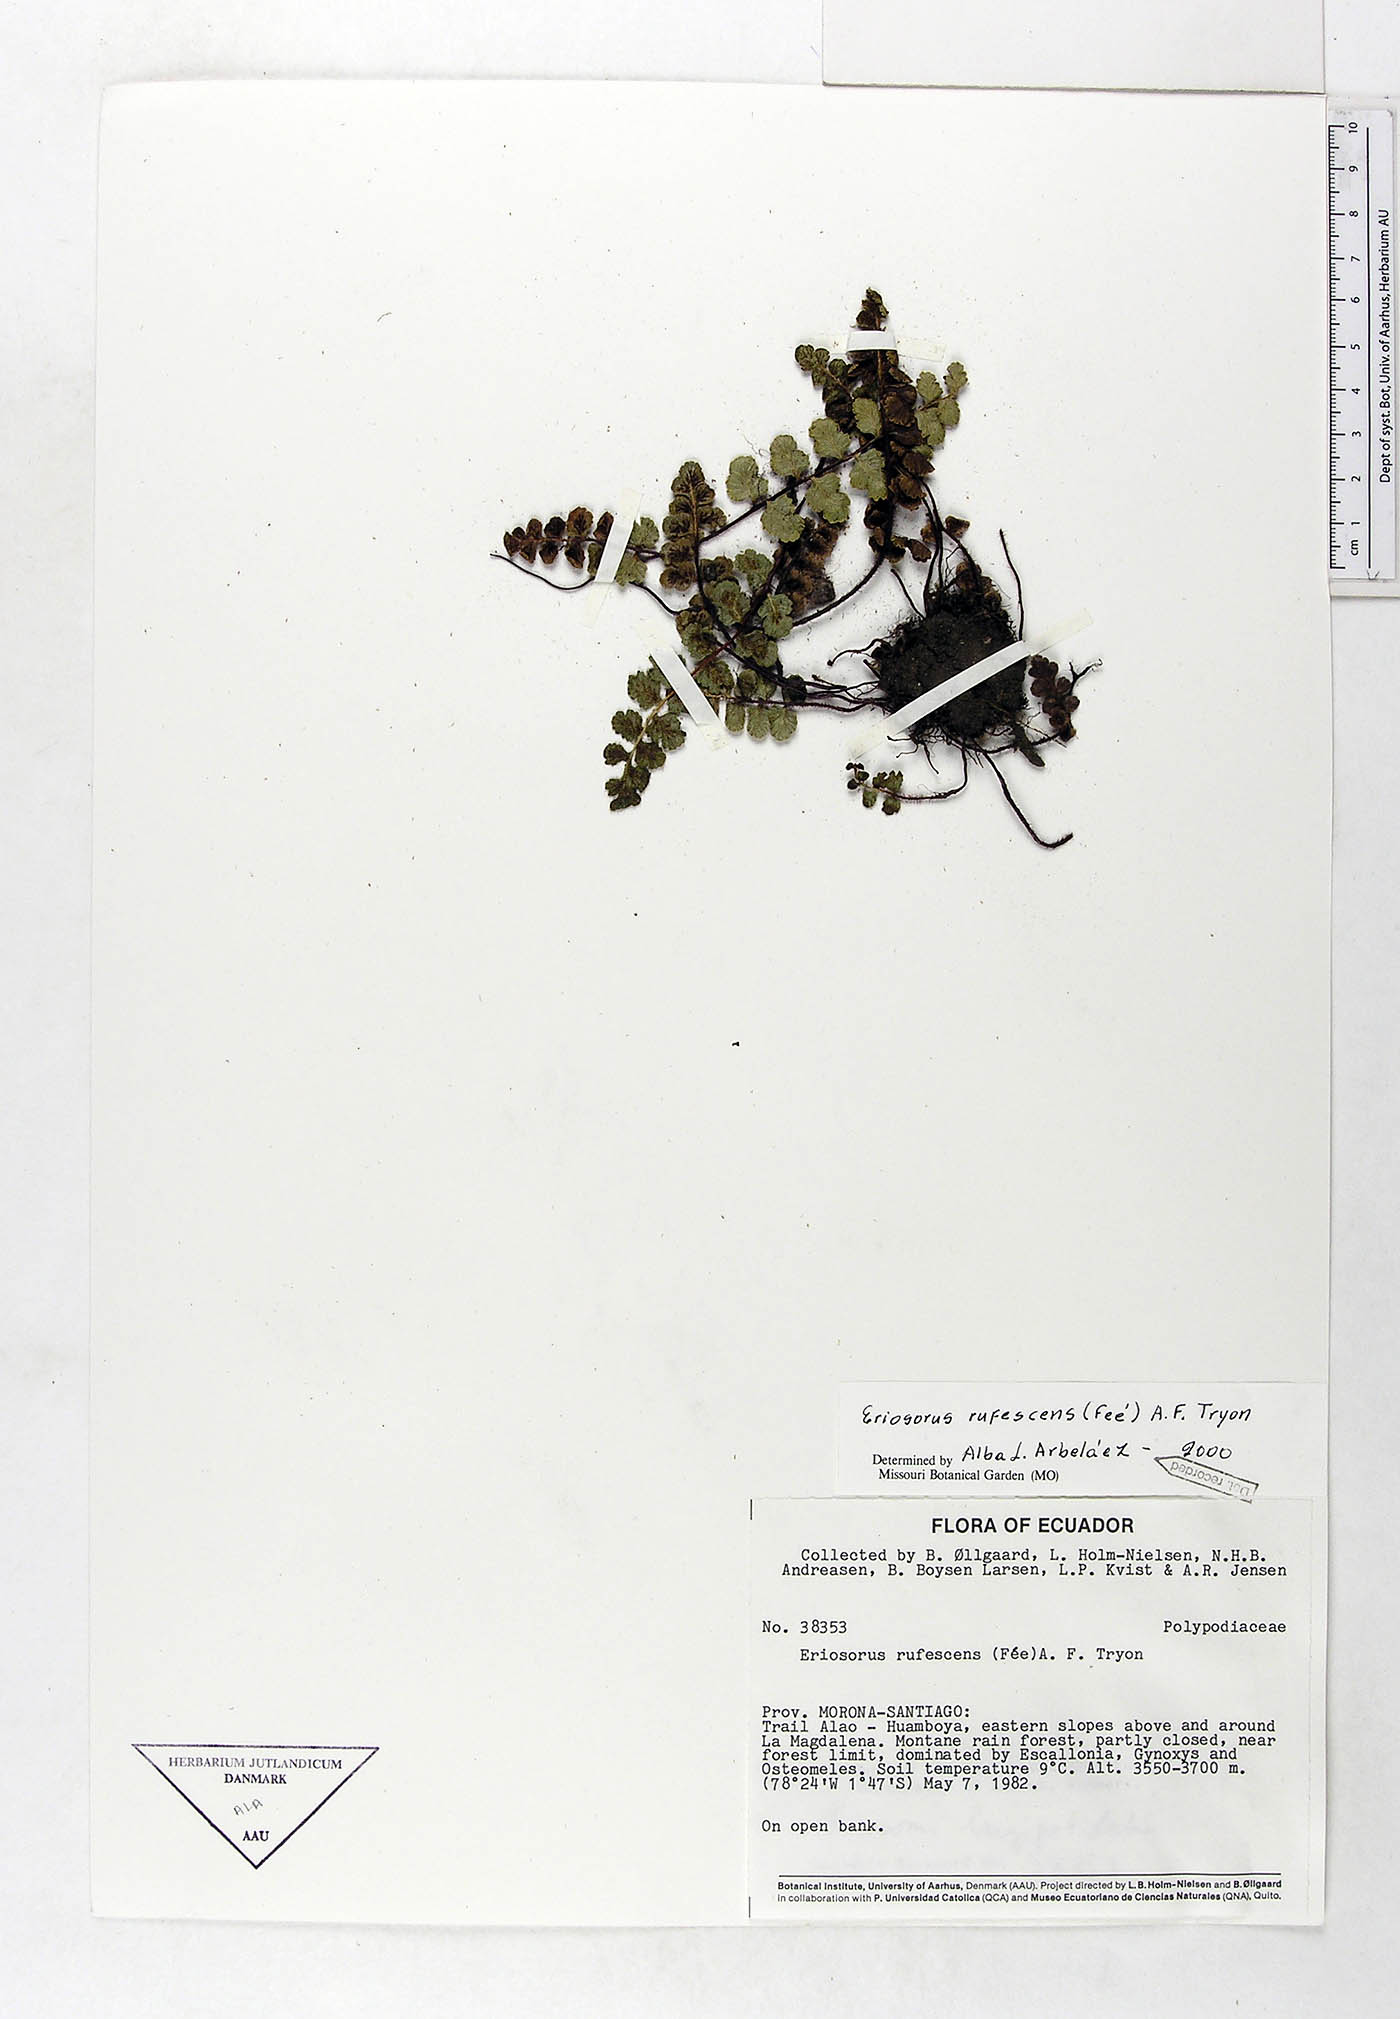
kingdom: Plantae
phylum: Tracheophyta
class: Polypodiopsida
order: Polypodiales
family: Pteridaceae
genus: Jamesonia
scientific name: Jamesonia rufescens
